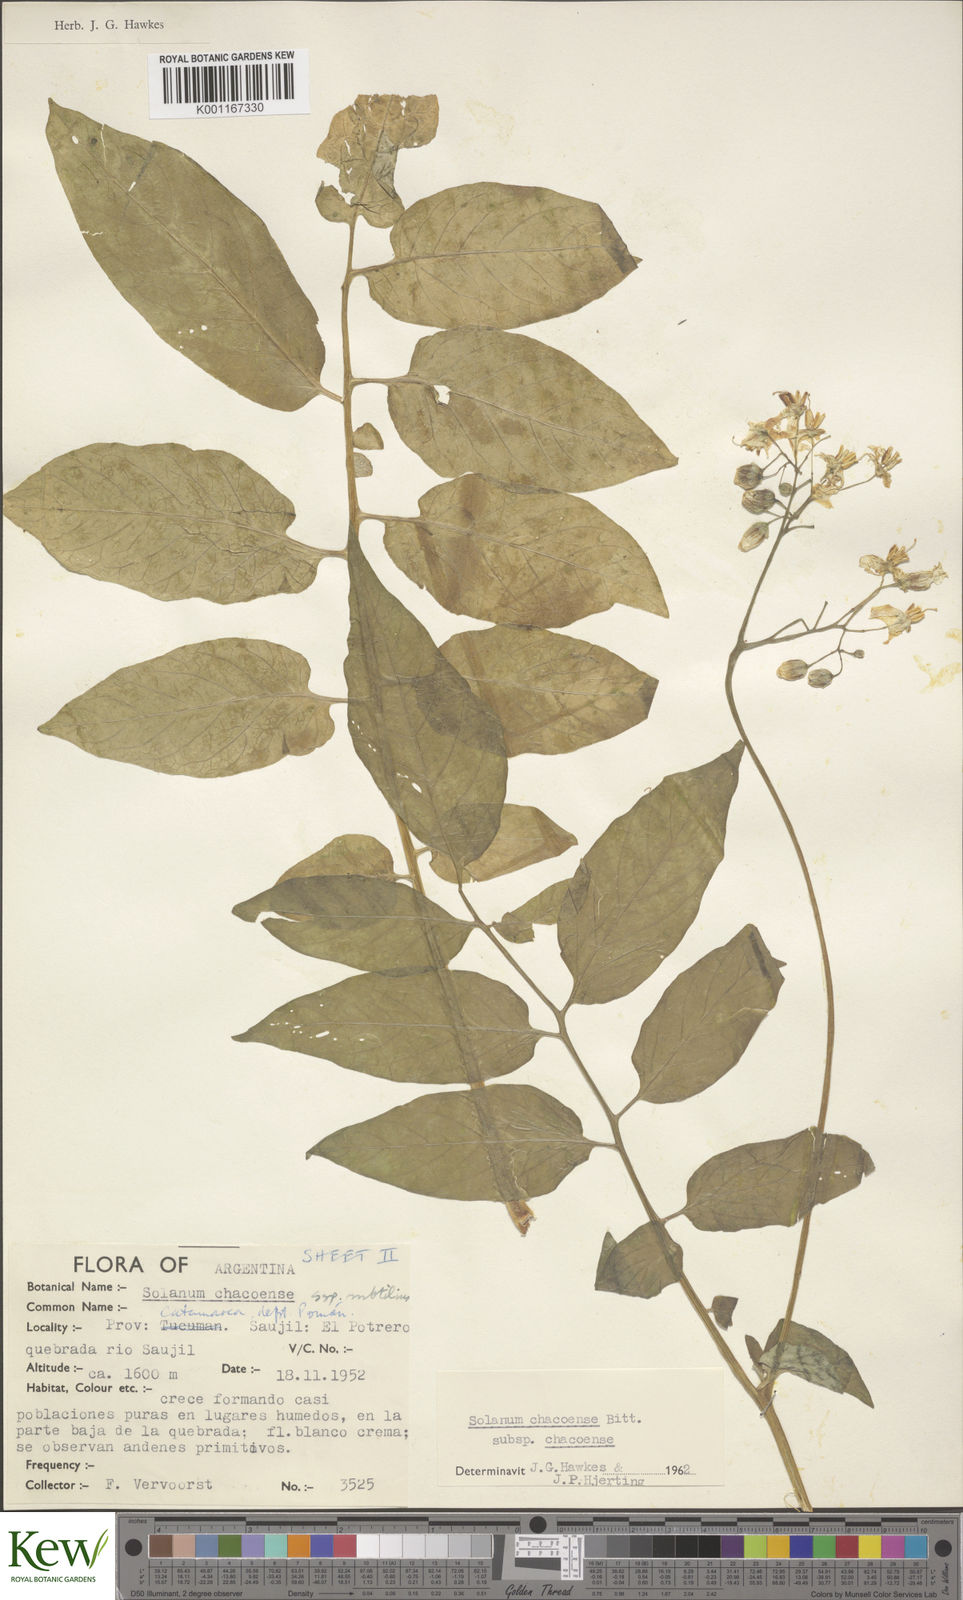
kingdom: Plantae
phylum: Tracheophyta
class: Magnoliopsida
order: Solanales
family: Solanaceae
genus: Solanum
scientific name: Solanum chacoense
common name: Chaco potato
